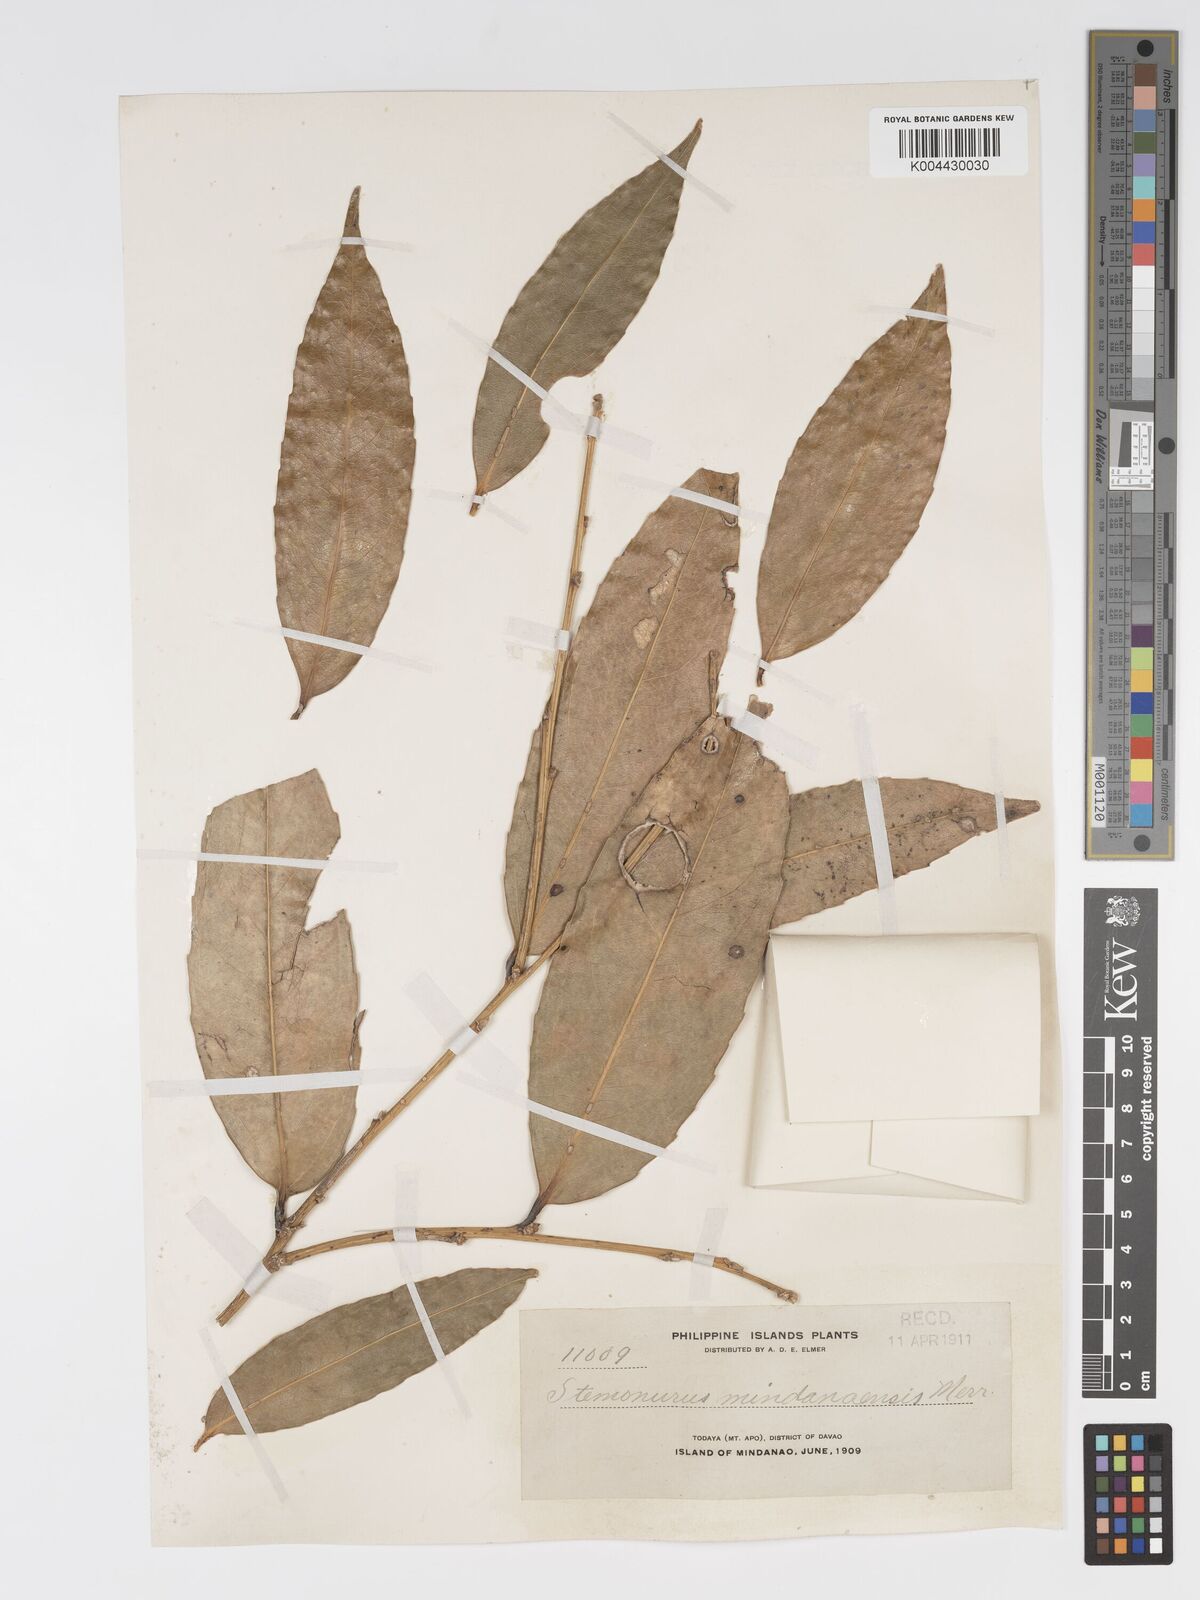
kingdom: Plantae
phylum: Tracheophyta
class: Magnoliopsida
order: Malpighiales
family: Putranjivaceae
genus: Drypetes
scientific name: Drypetes sibuyanensis
